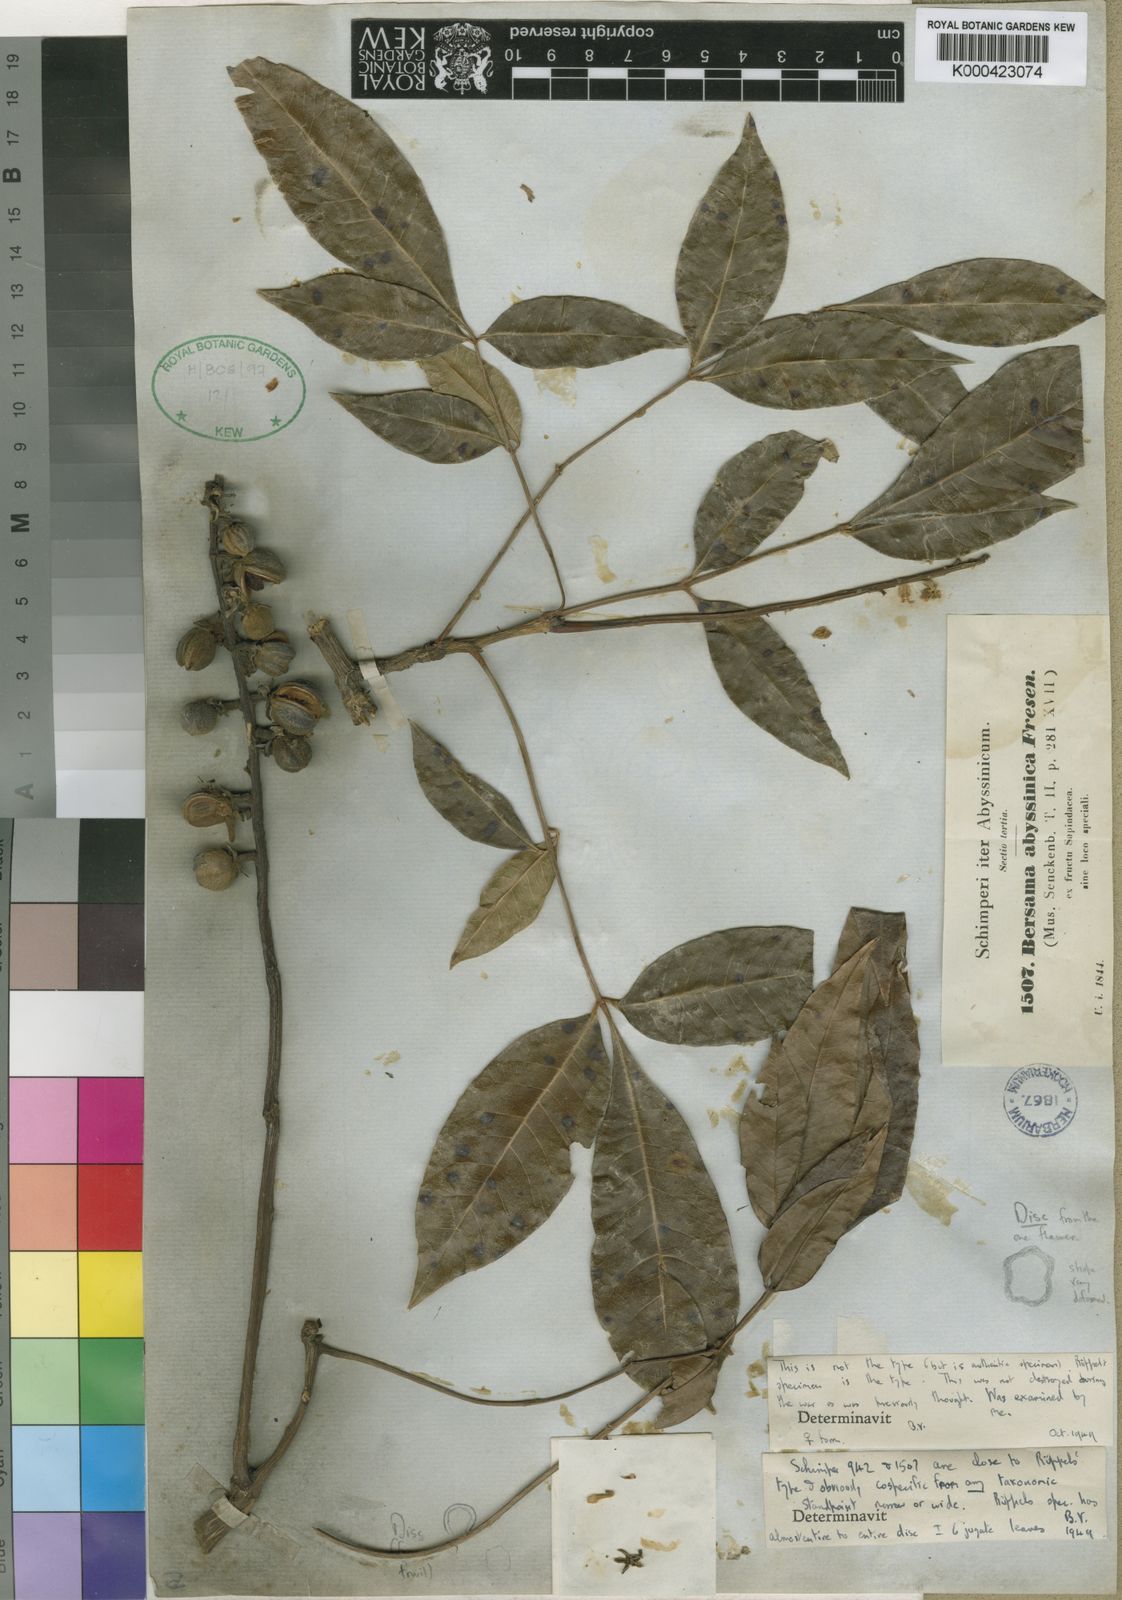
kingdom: Plantae
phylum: Tracheophyta
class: Magnoliopsida
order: Geraniales
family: Melianthaceae
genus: Bersama
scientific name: Bersama abyssinica
